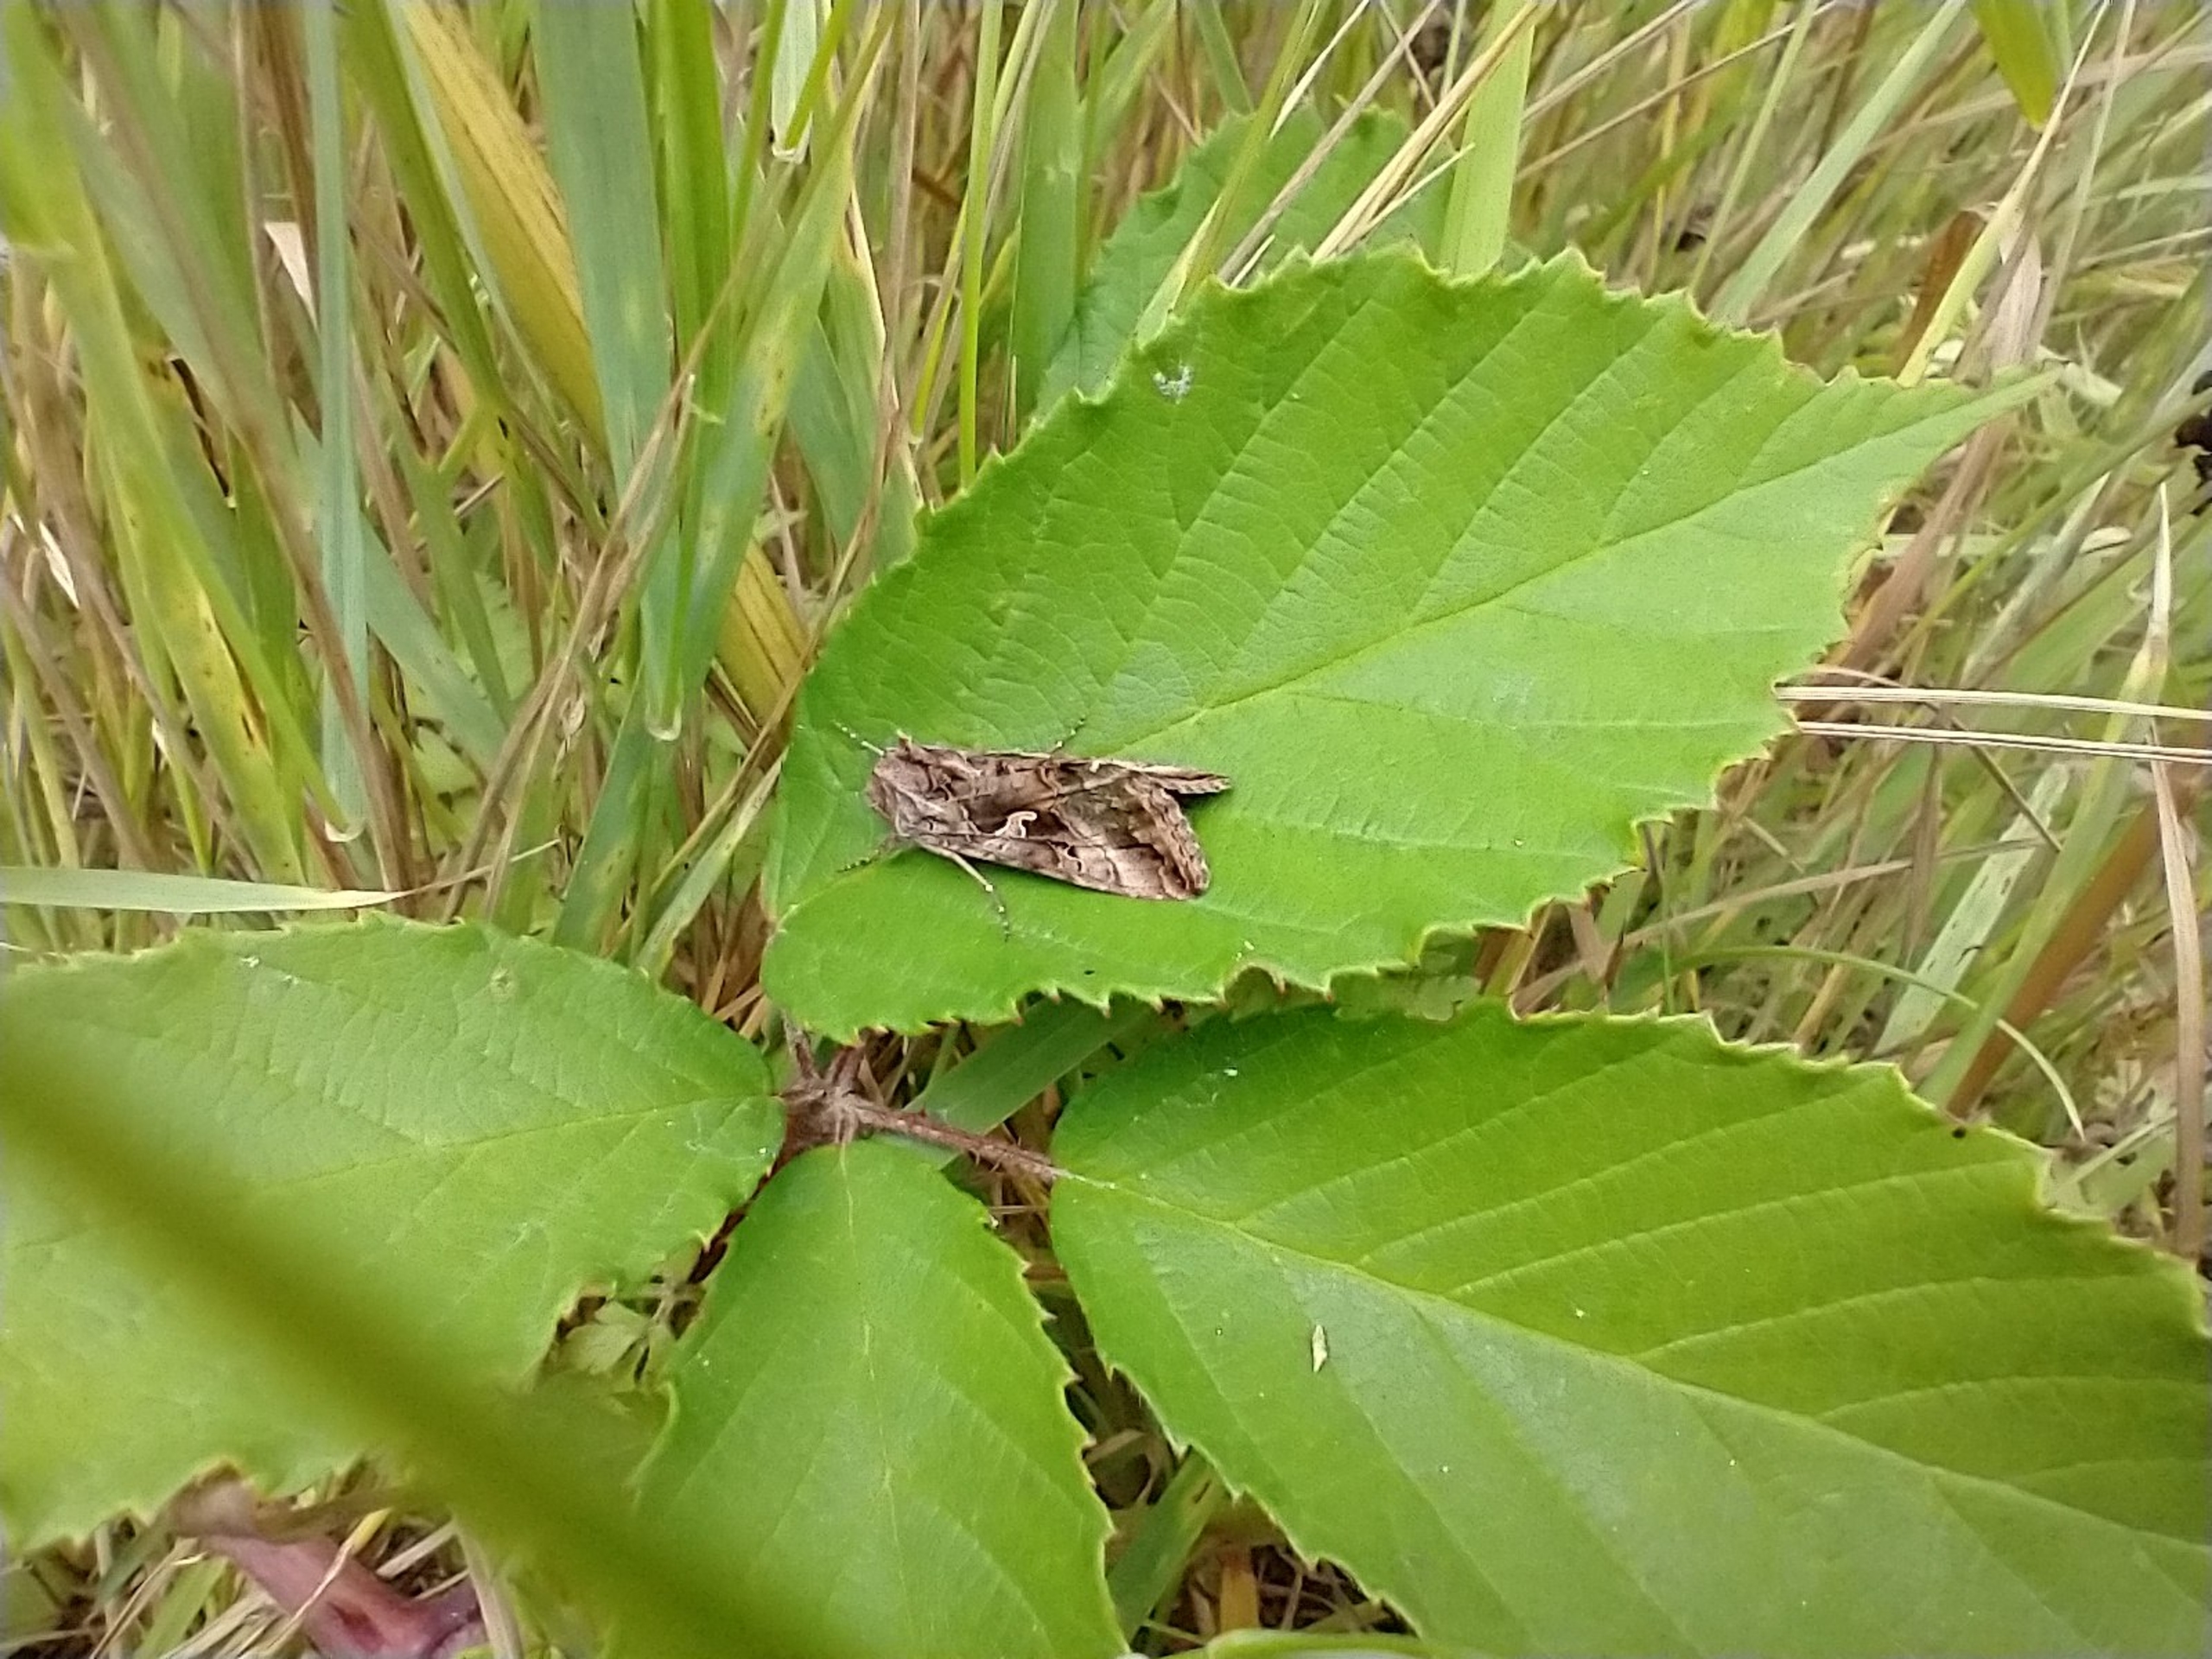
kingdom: Animalia
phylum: Arthropoda
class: Insecta
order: Lepidoptera
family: Noctuidae
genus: Autographa
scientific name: Autographa gamma
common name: Gammaugle
